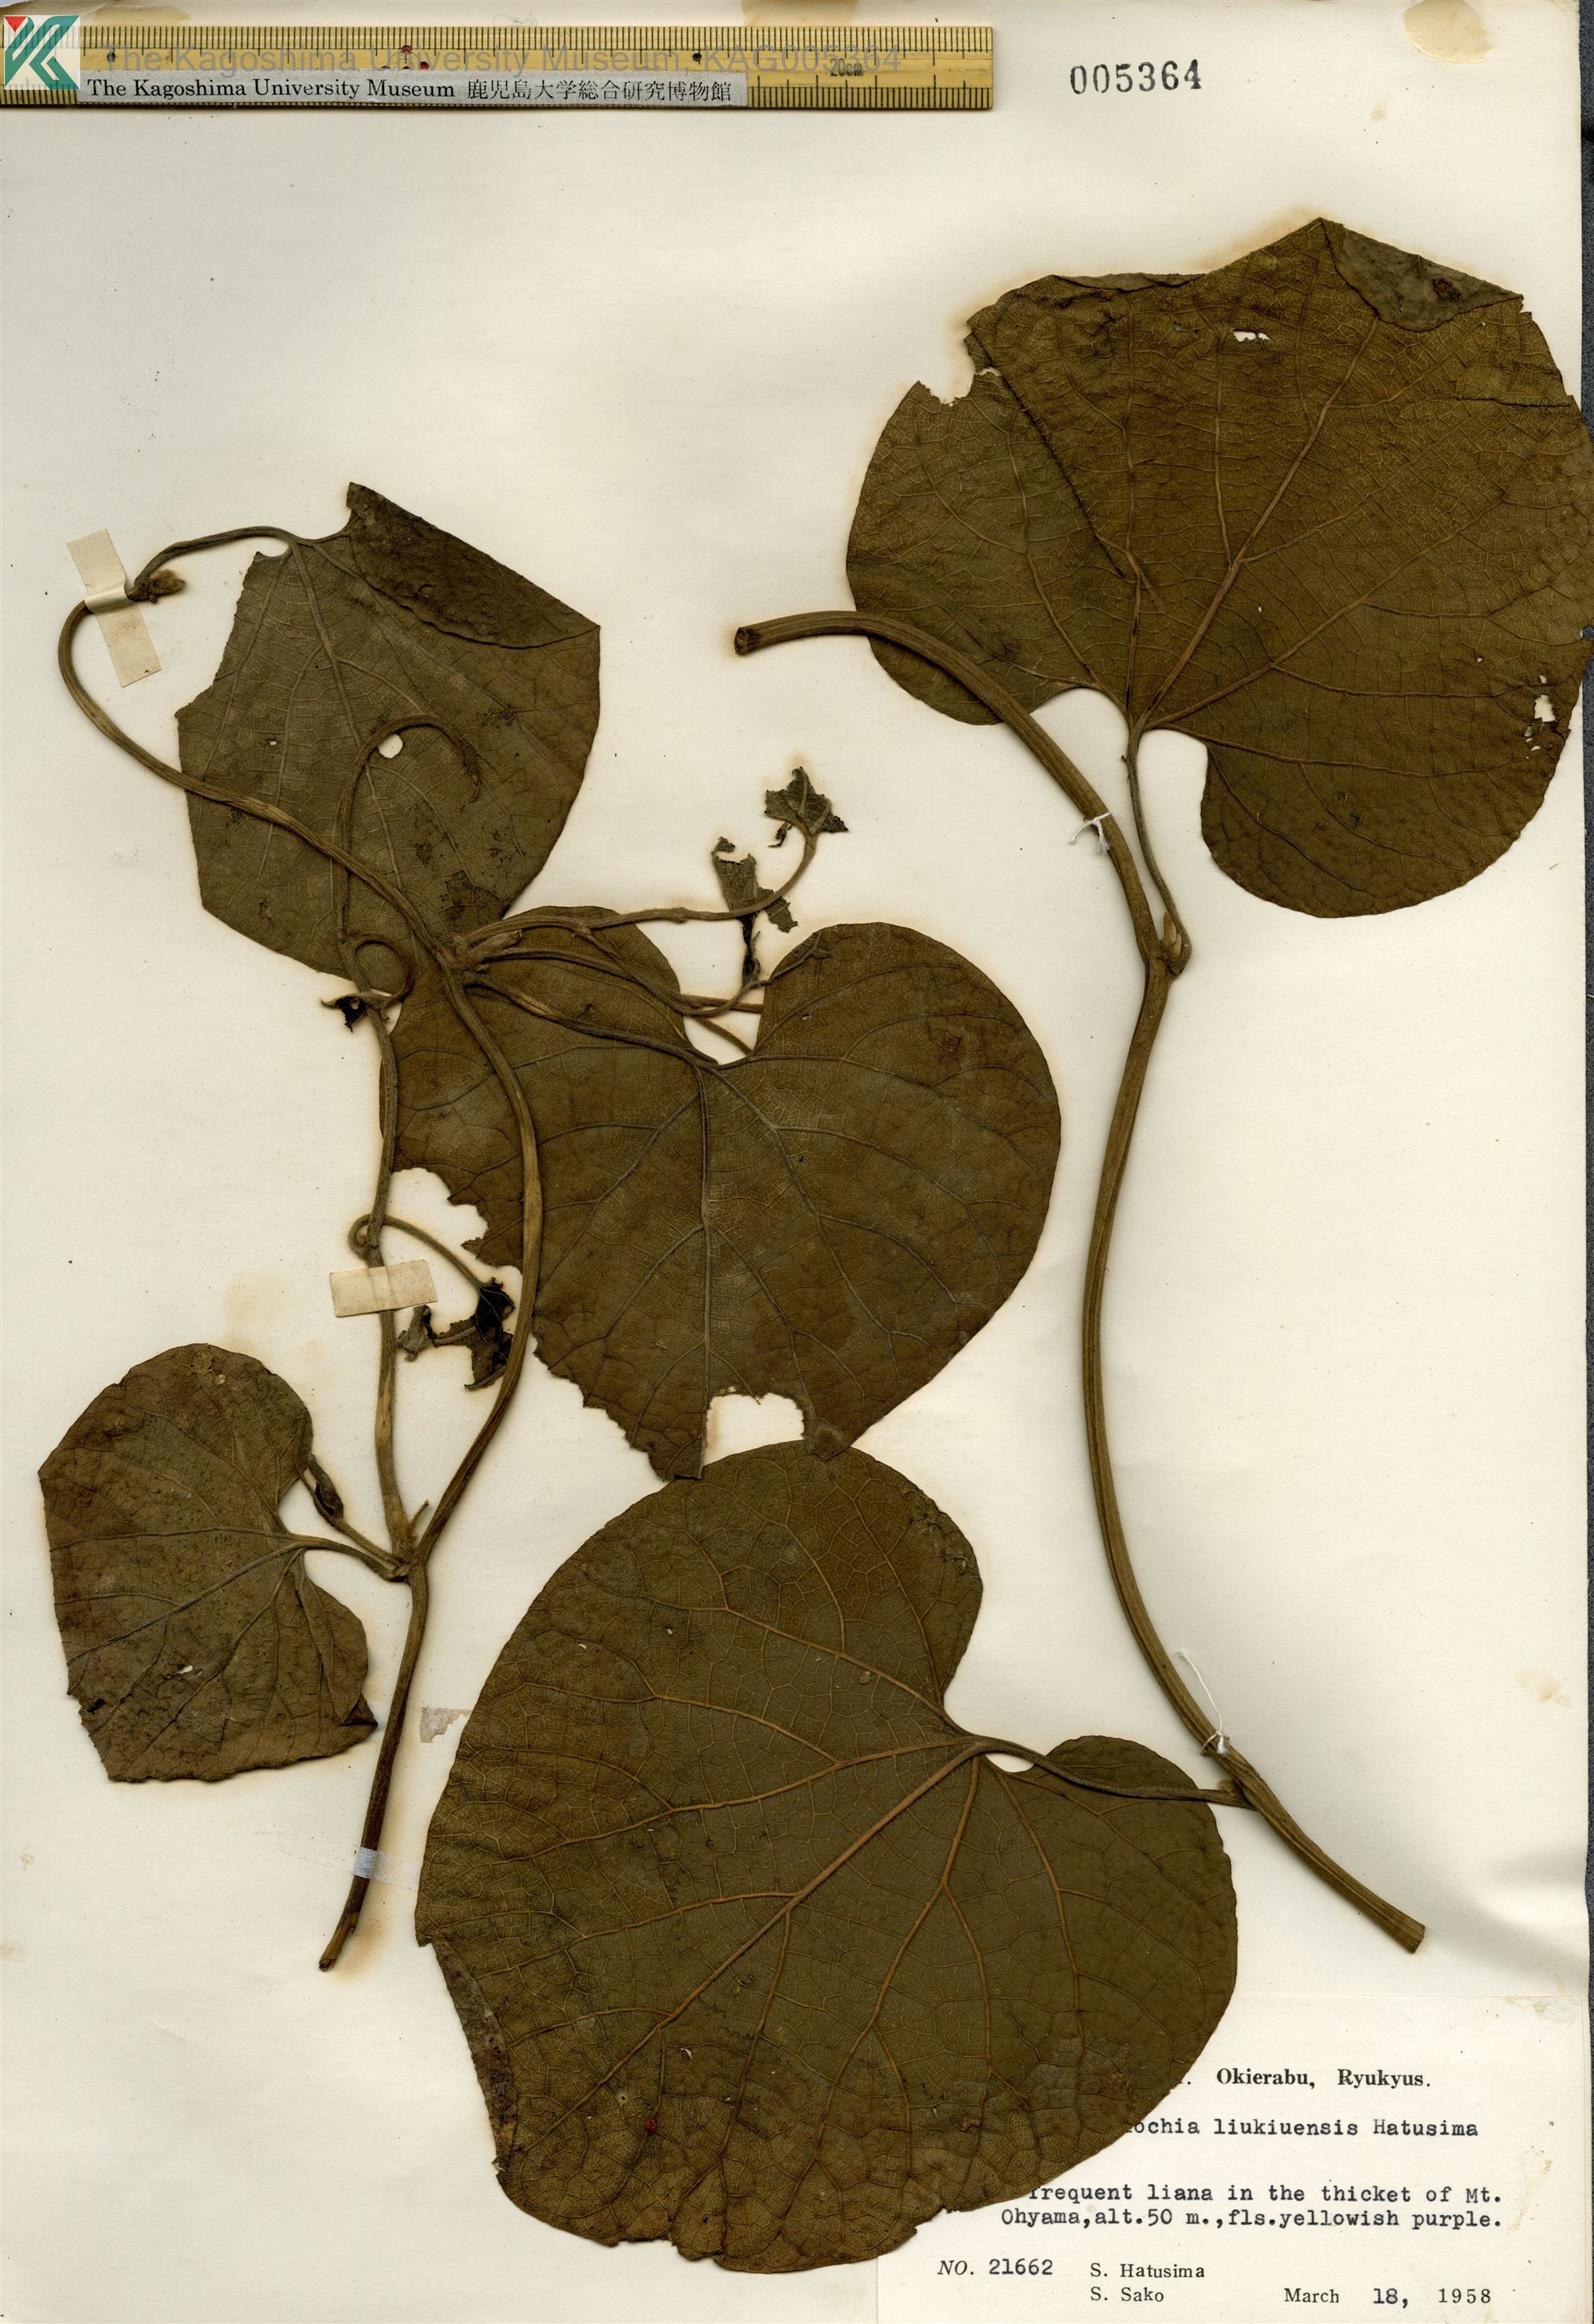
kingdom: Plantae
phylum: Tracheophyta
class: Magnoliopsida
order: Piperales
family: Aristolochiaceae
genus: Isotrema
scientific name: Isotrema liukiuense
